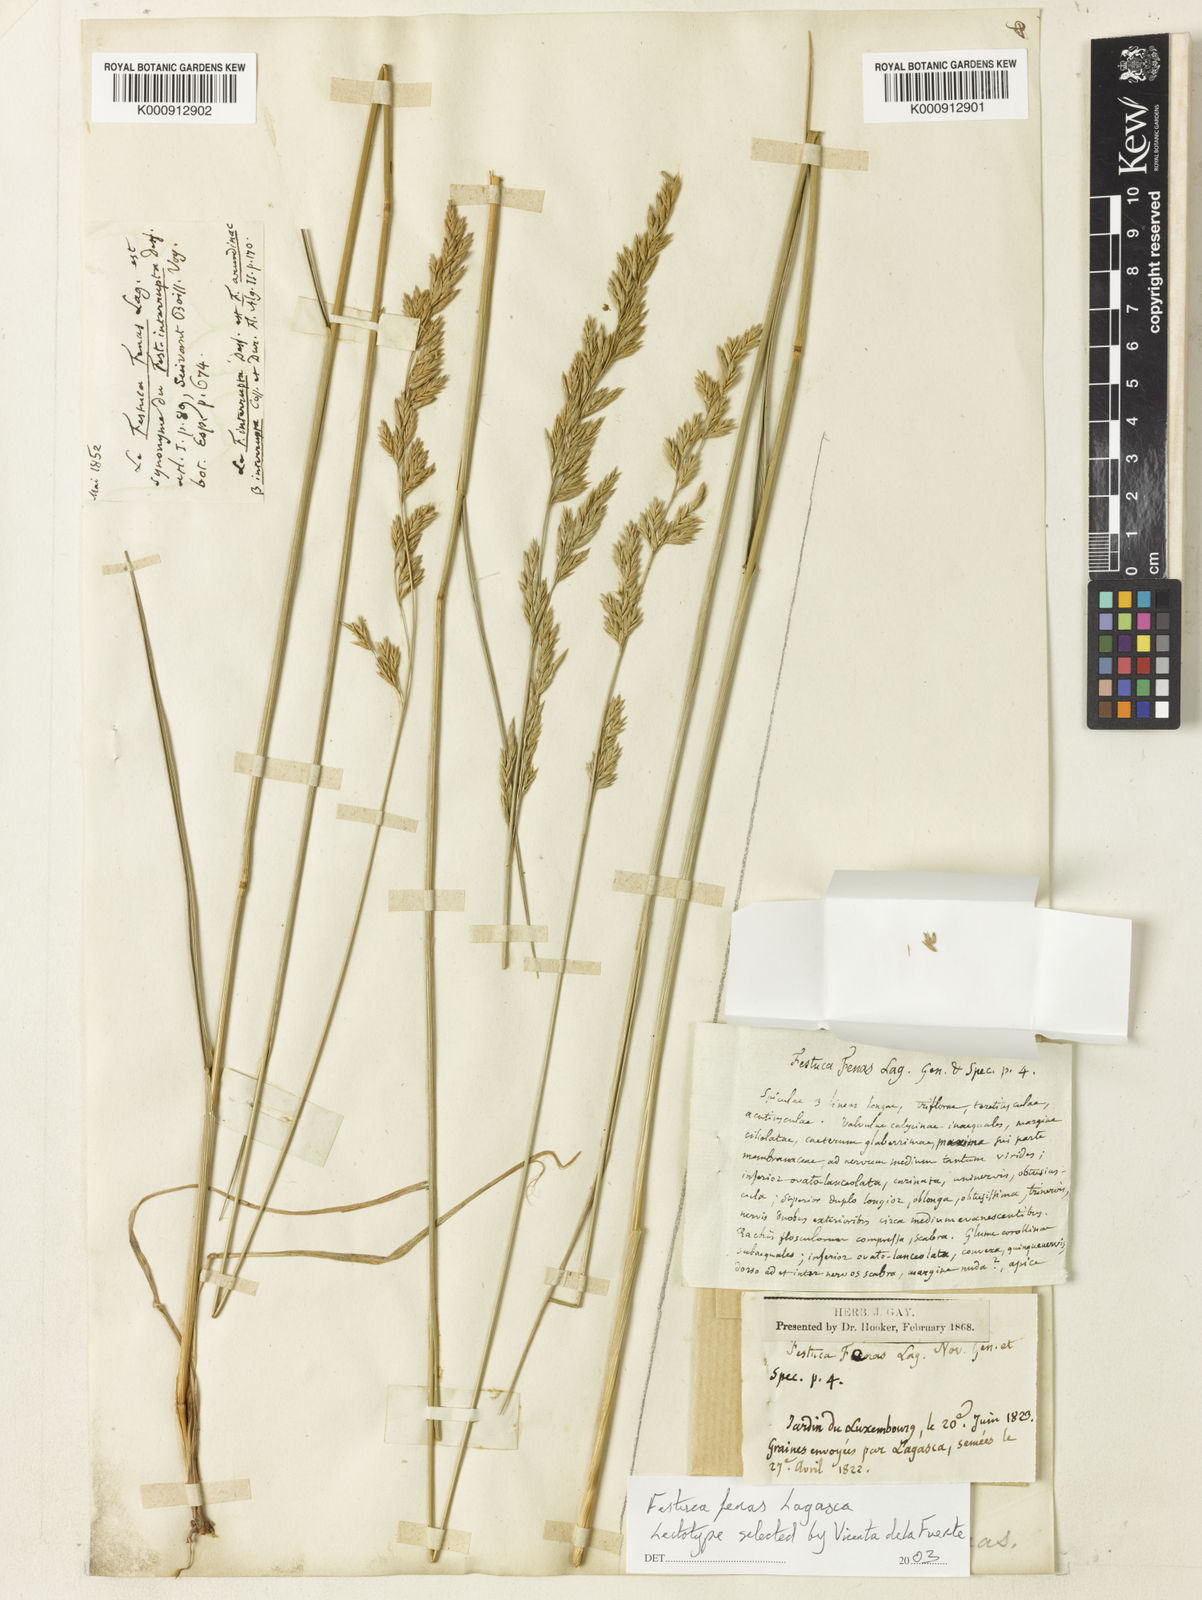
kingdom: Plantae
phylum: Tracheophyta
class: Liliopsida
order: Poales
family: Poaceae
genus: Lolium
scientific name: Lolium arundinaceum
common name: Reed fescue
